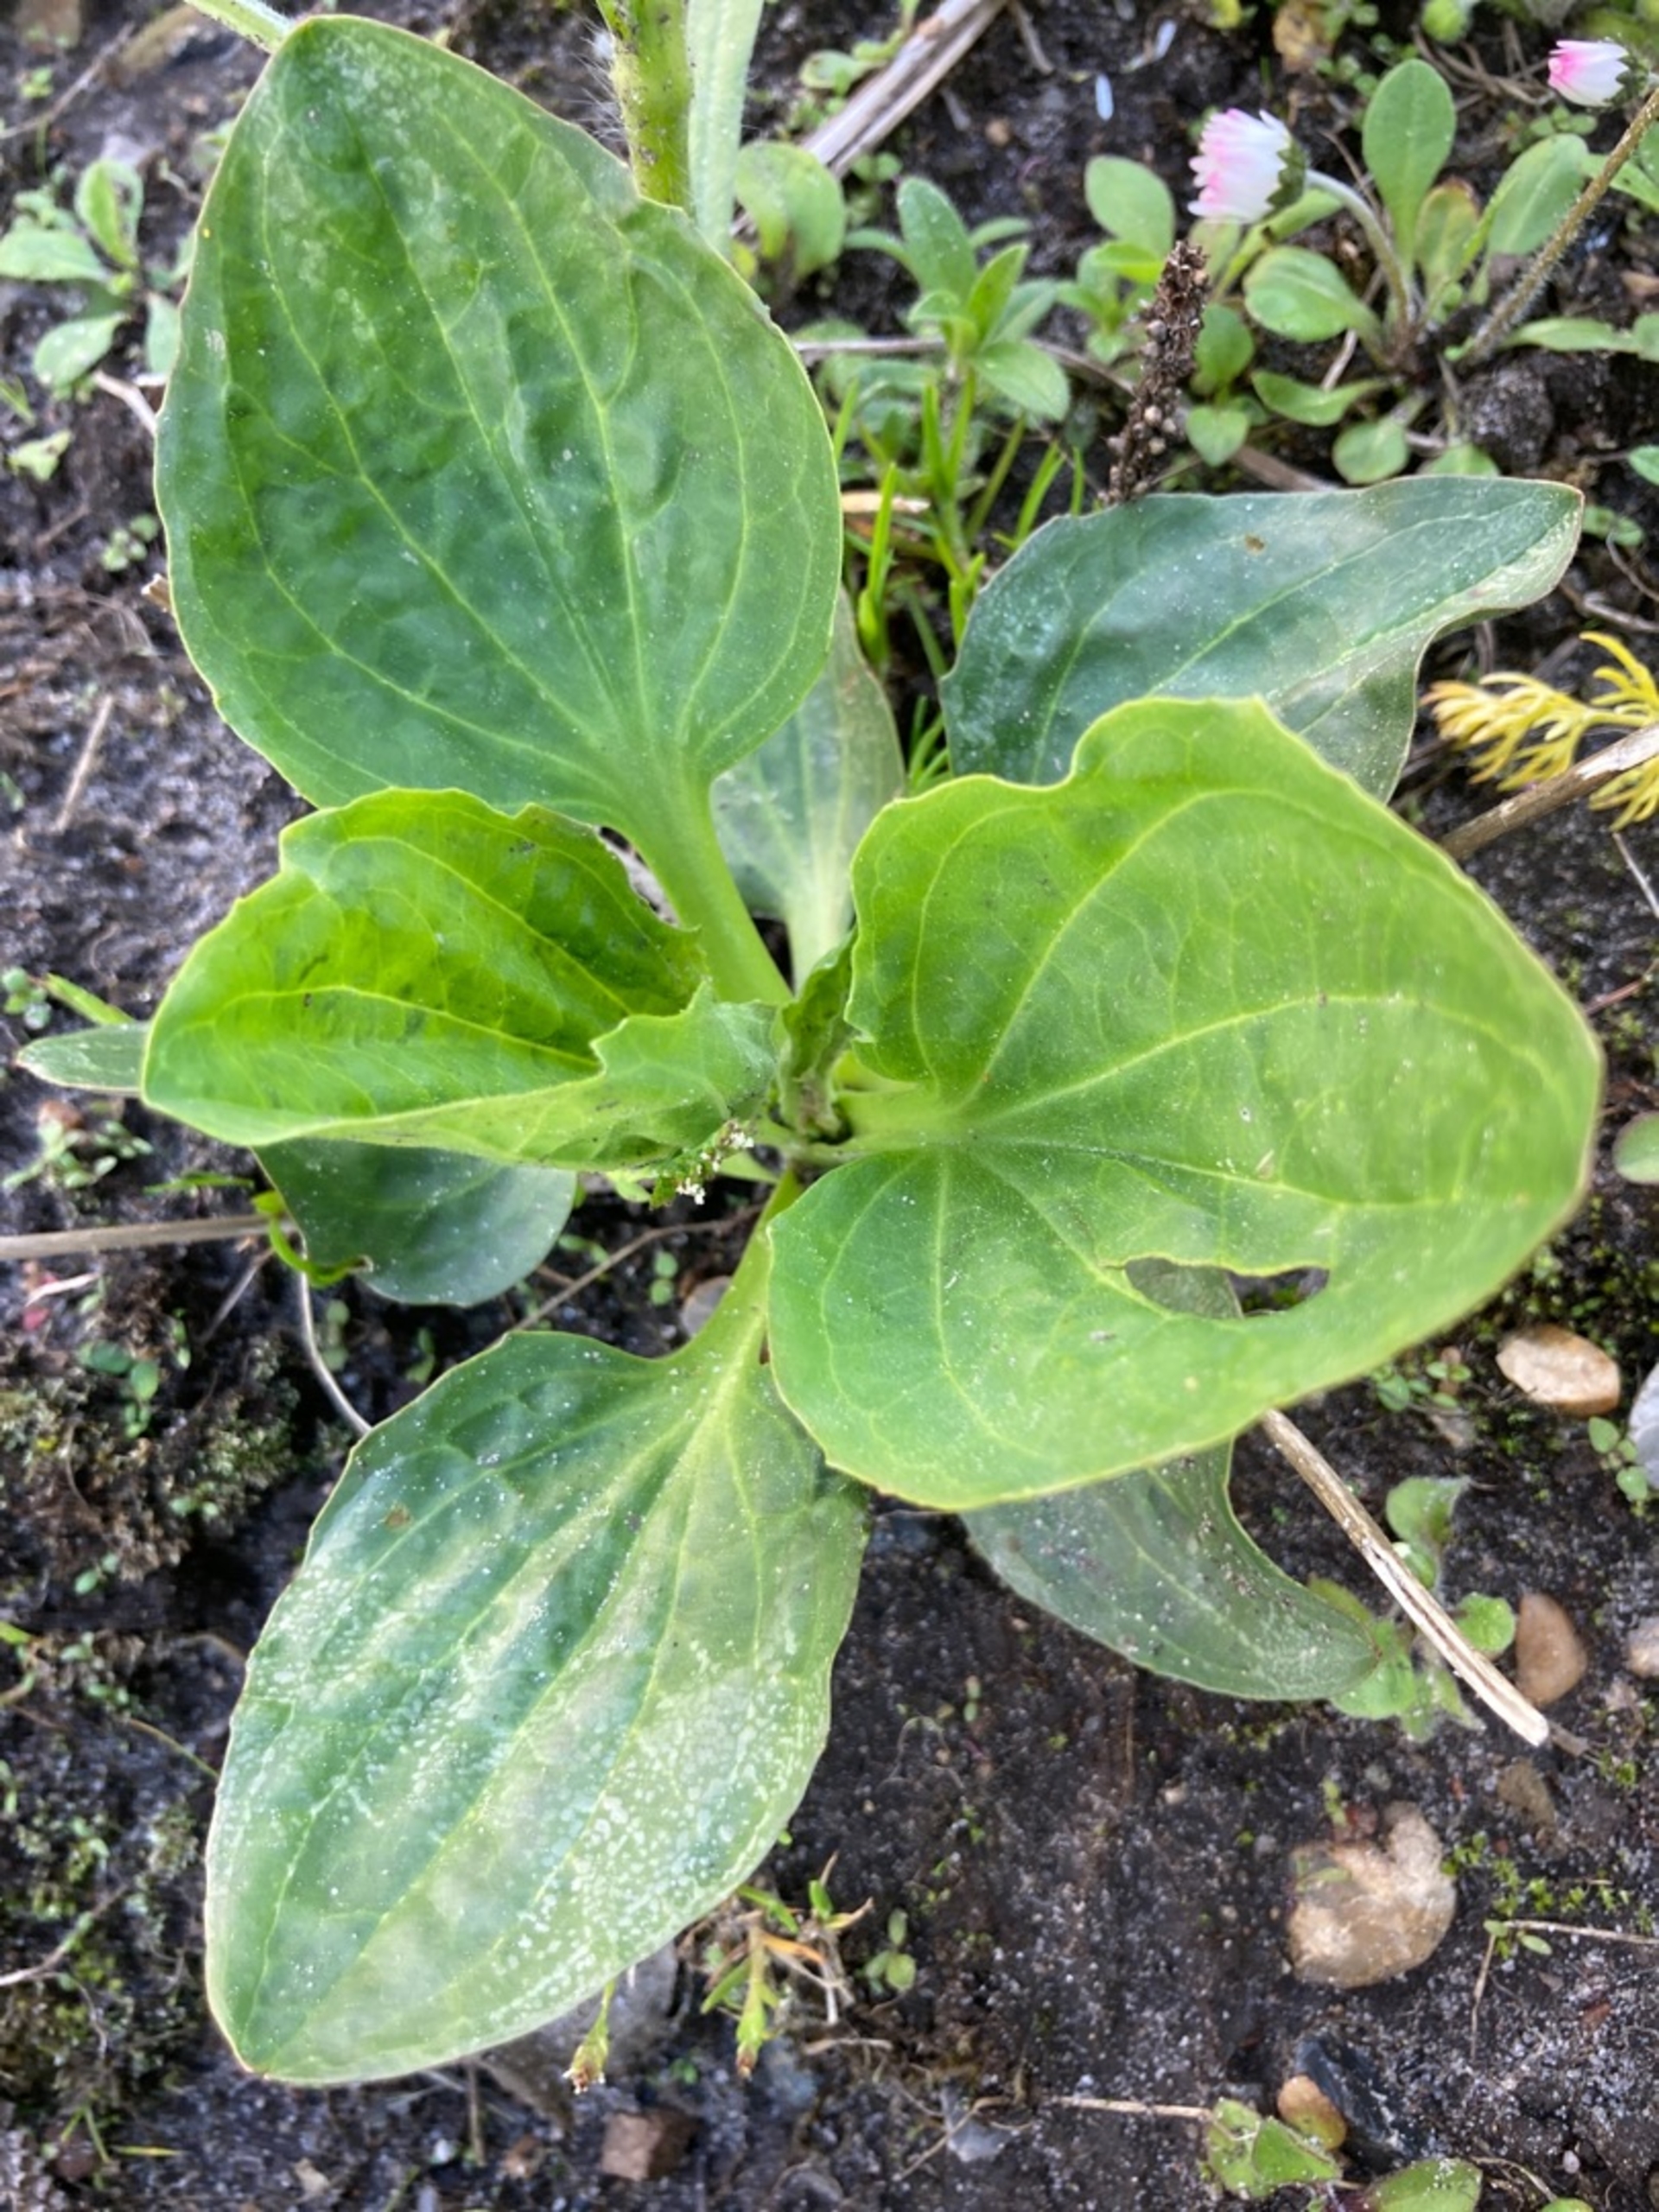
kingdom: Plantae
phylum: Tracheophyta
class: Magnoliopsida
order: Lamiales
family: Plantaginaceae
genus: Plantago
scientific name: Plantago major
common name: Glat vejbred
